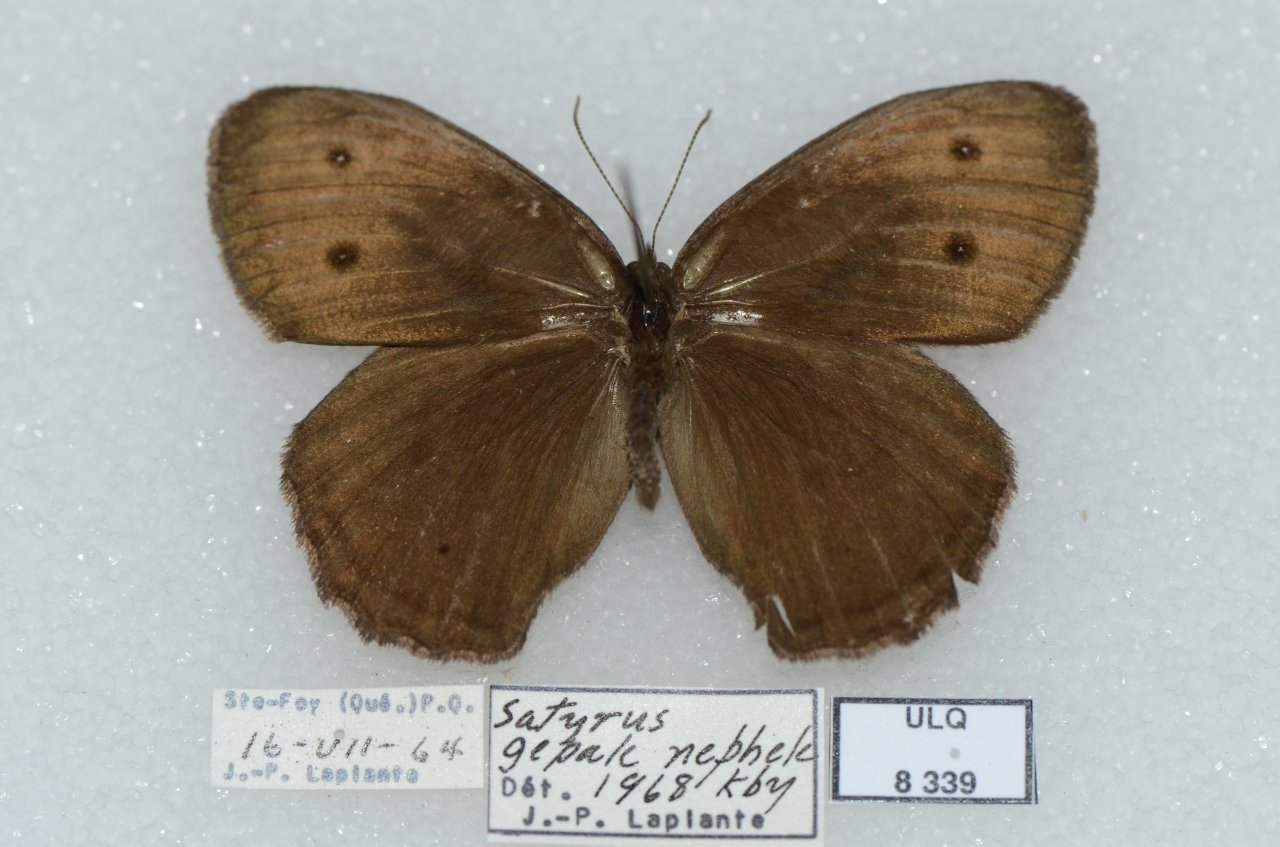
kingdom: Animalia
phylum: Arthropoda
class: Insecta
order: Lepidoptera
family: Nymphalidae
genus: Cercyonis
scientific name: Cercyonis pegala
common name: Common Wood-Nymph
